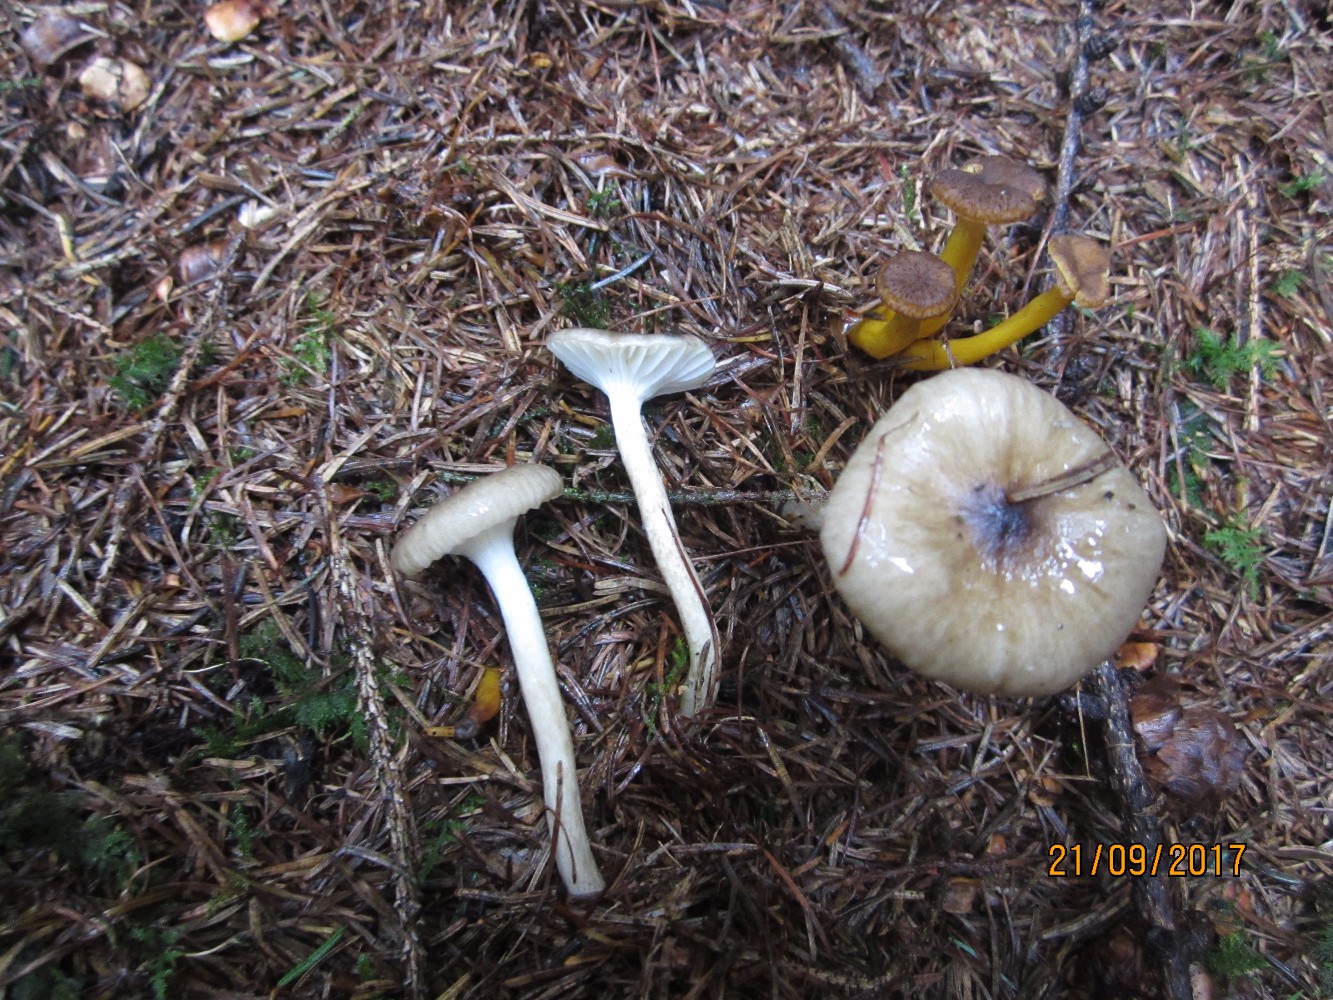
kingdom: Fungi
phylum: Basidiomycota
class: Agaricomycetes
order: Agaricales
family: Hygrophoraceae
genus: Hygrophorus
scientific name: Hygrophorus olivaceoalbus
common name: hvidbrun sneglehat
